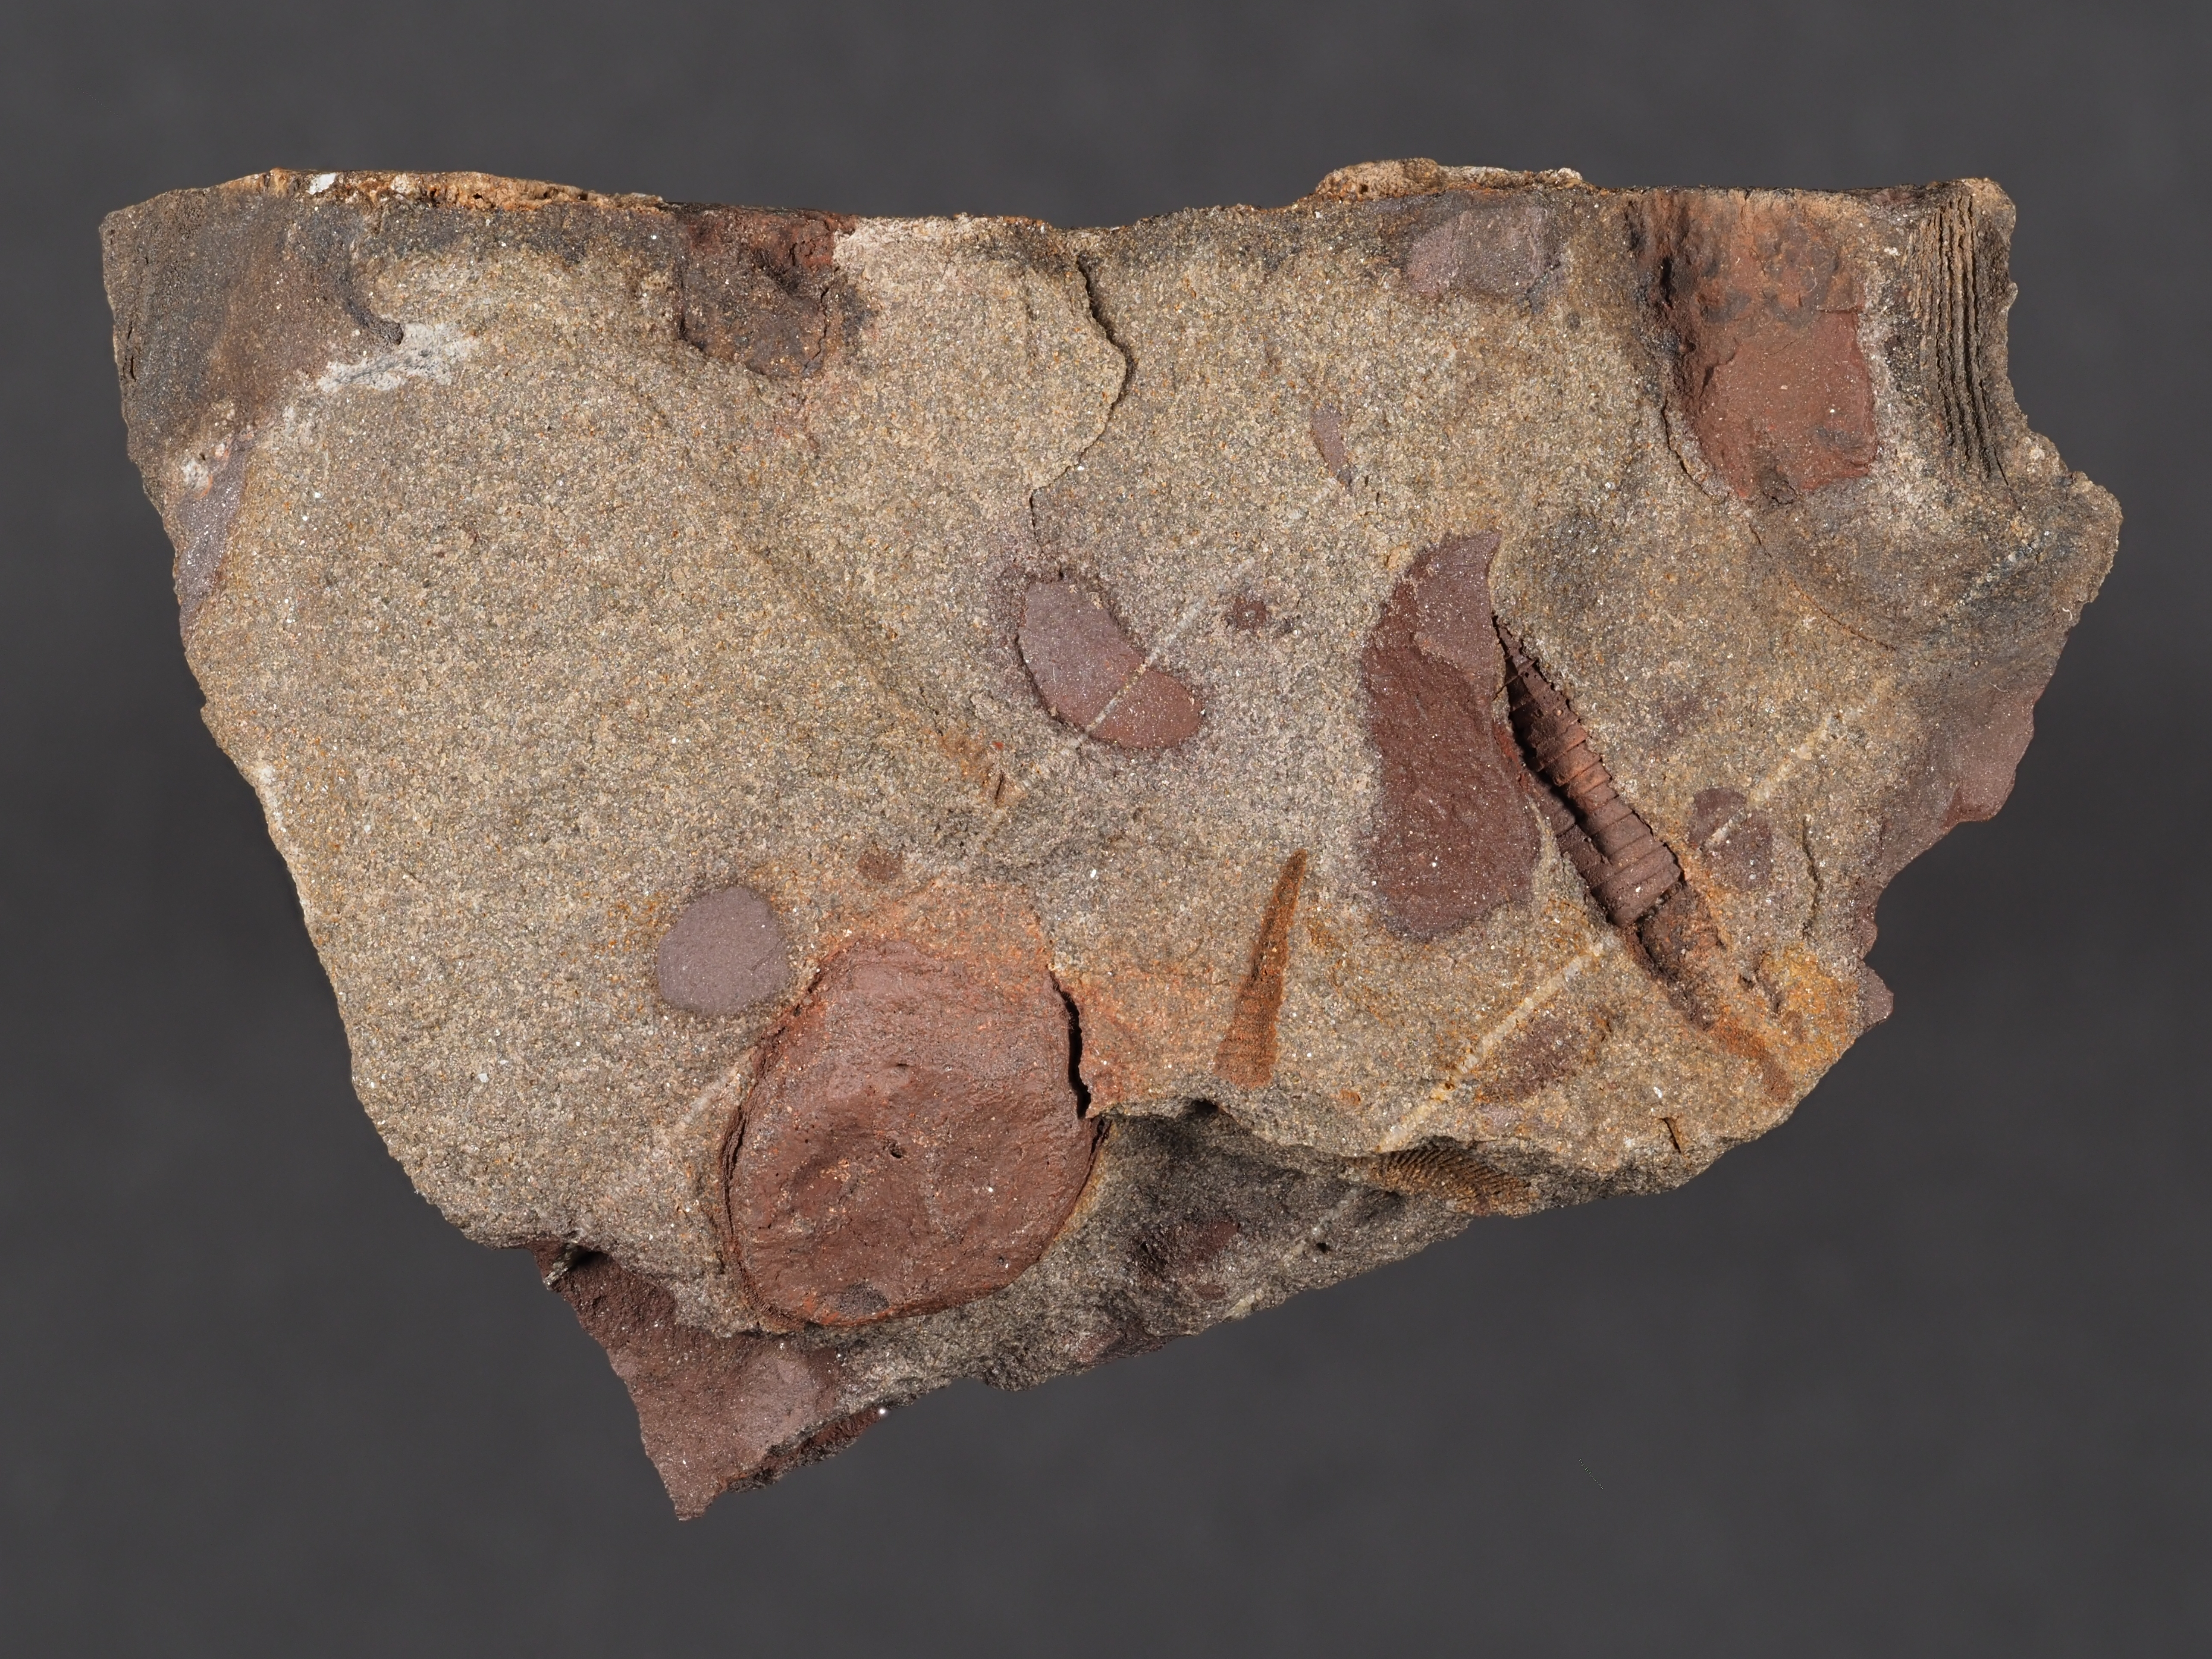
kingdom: Animalia
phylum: Arthropoda
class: Ostracoda
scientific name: Ostracoda
